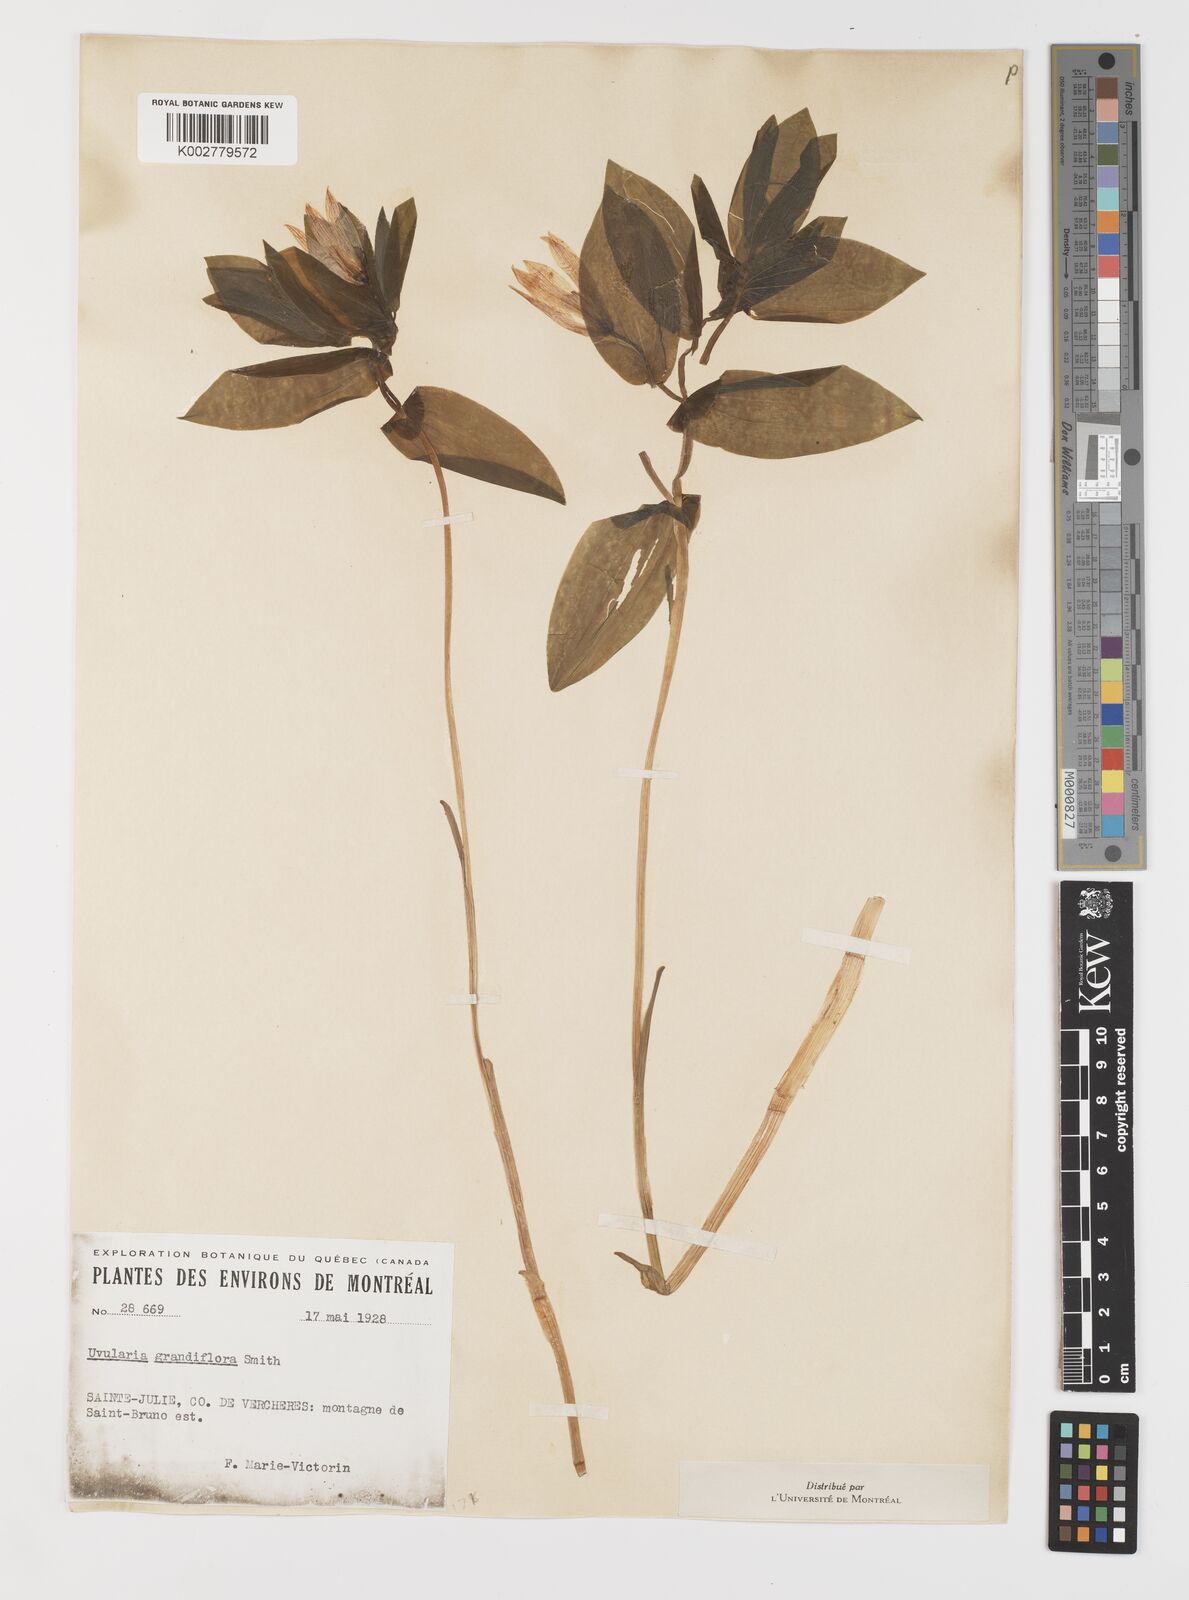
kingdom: Plantae
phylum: Tracheophyta
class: Liliopsida
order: Liliales
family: Colchicaceae
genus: Uvularia
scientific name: Uvularia grandiflora
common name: Bellwort
